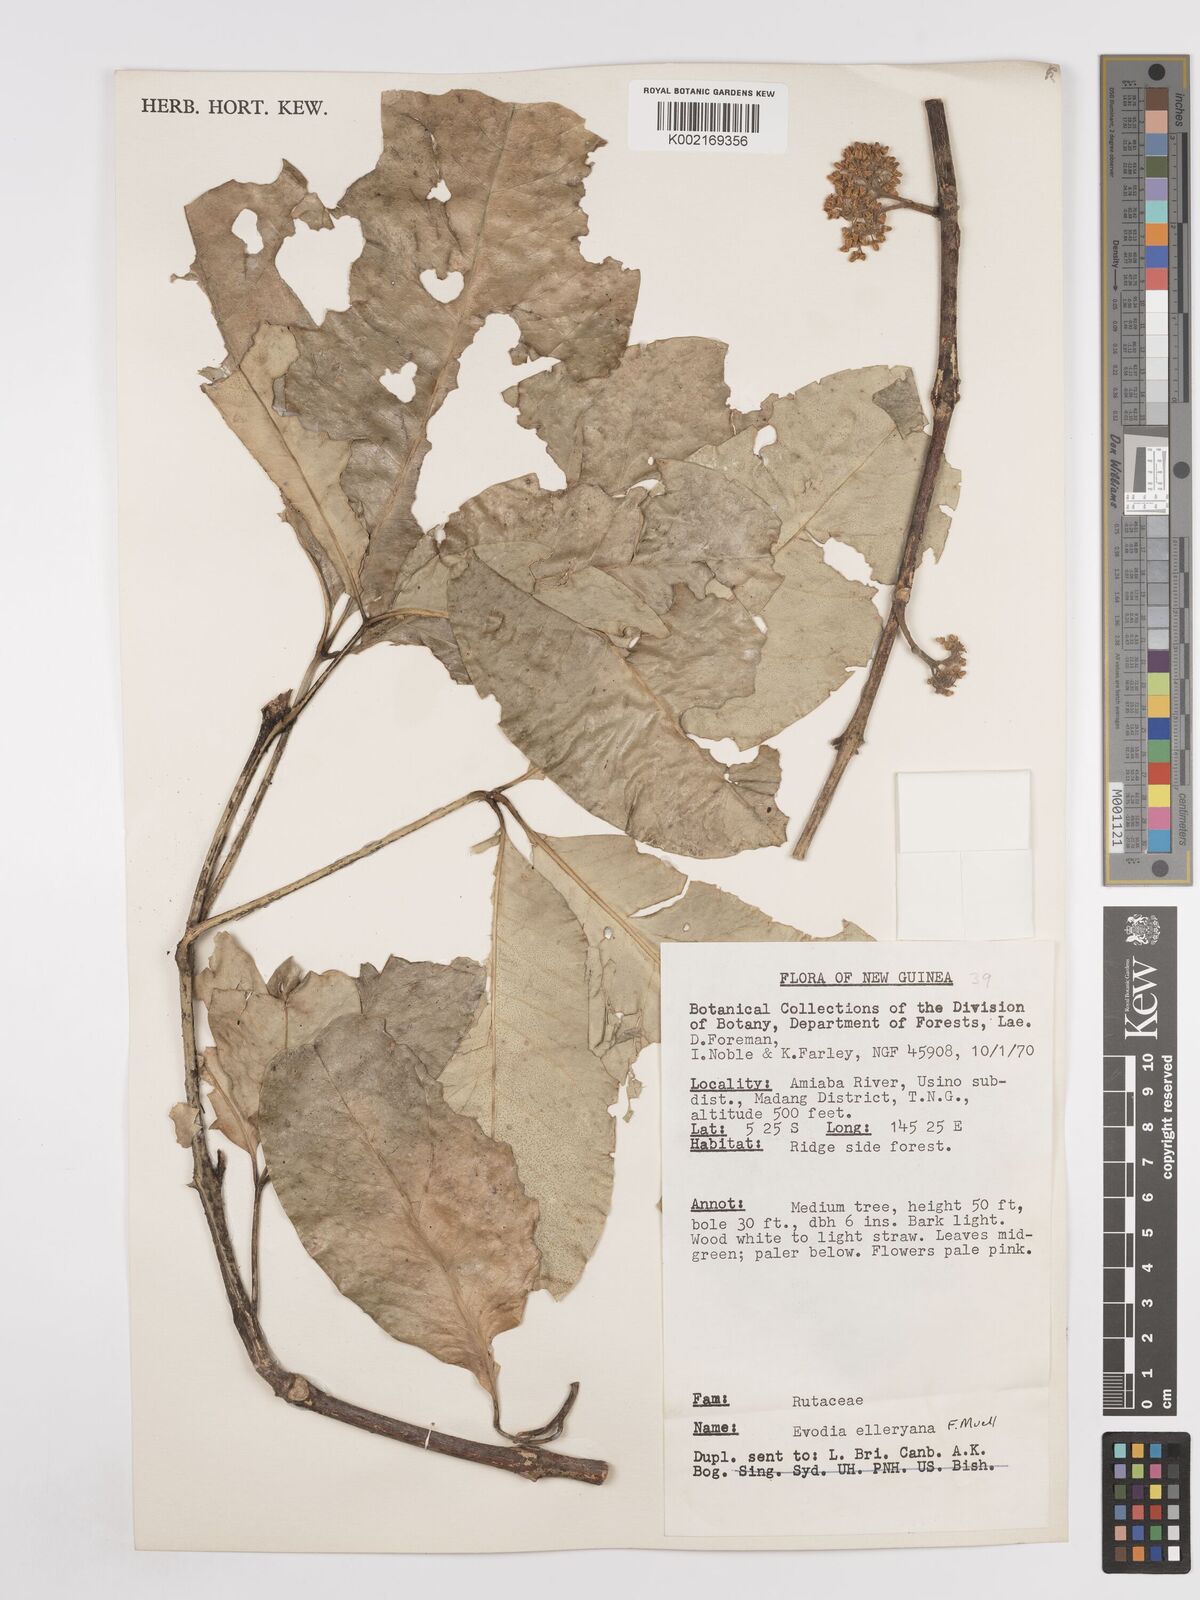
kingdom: Plantae
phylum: Tracheophyta
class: Magnoliopsida
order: Sapindales
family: Rutaceae
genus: Melicope
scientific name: Melicope elleryana
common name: Pink euodia
